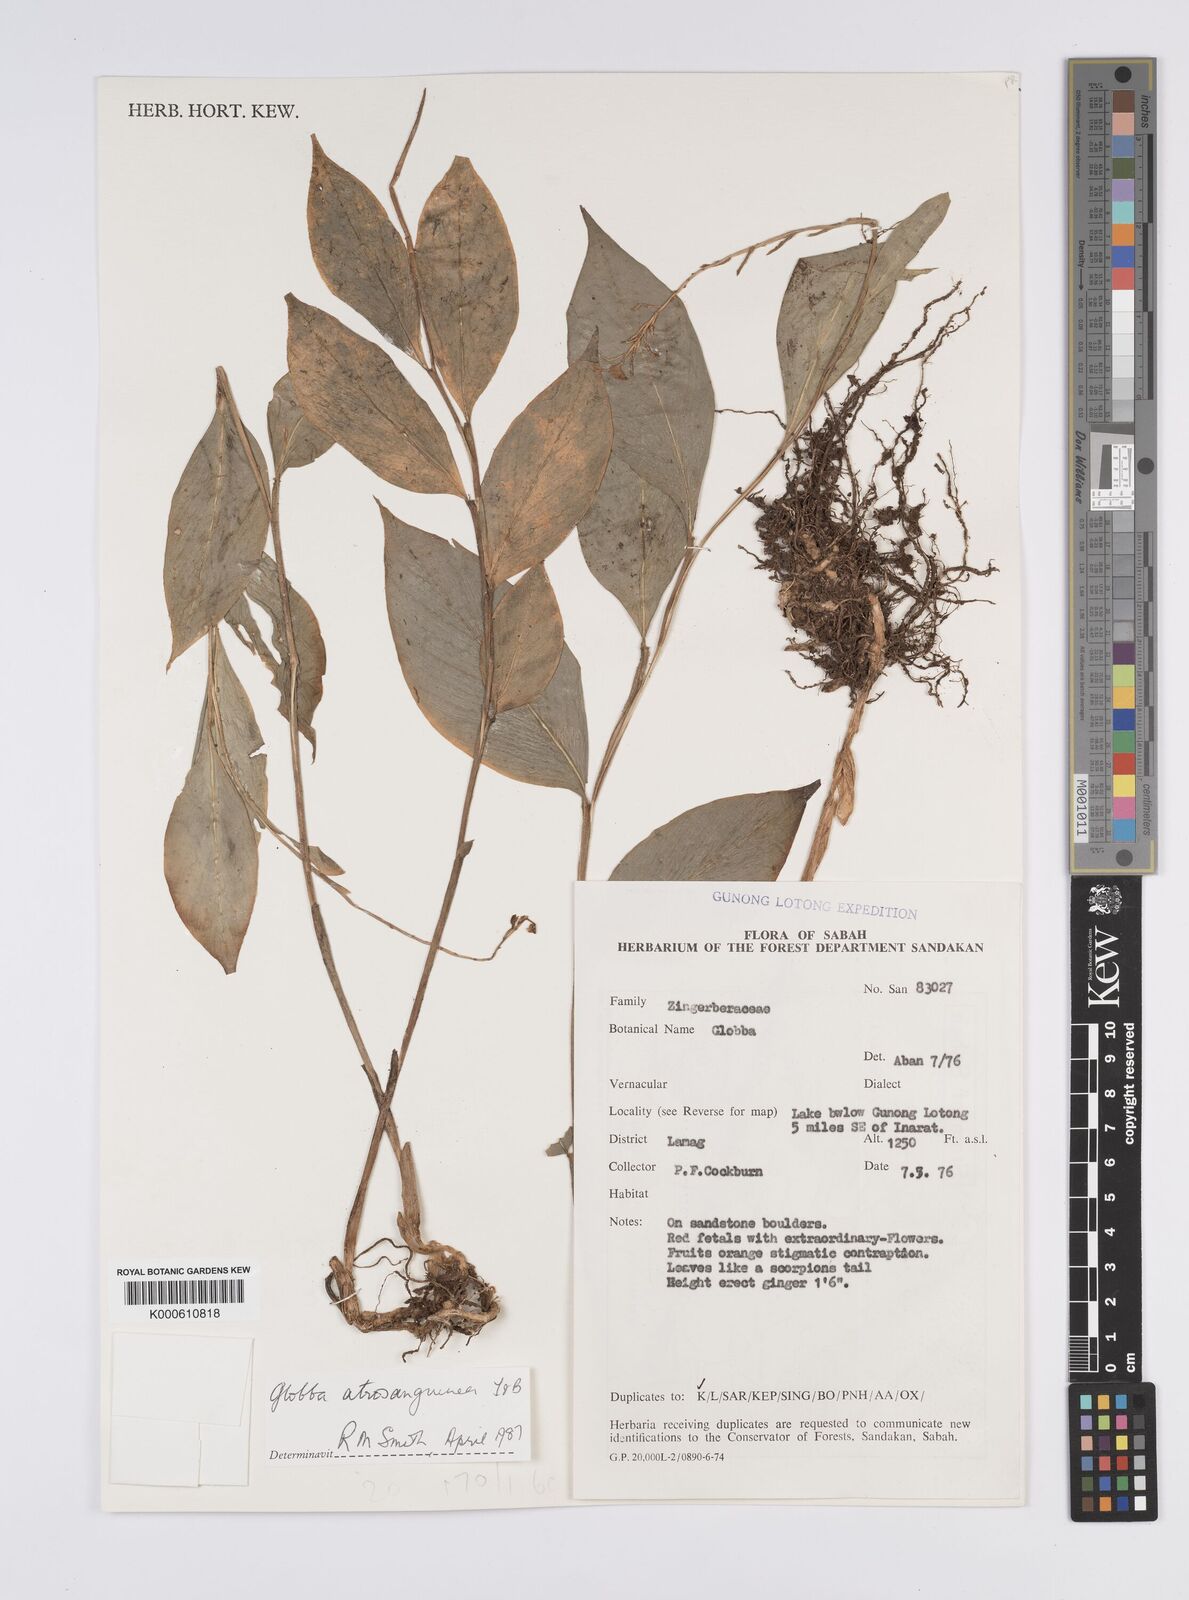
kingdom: Plantae
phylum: Tracheophyta
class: Liliopsida
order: Zingiberales
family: Zingiberaceae
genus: Globba
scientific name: Globba atrosanguinea
